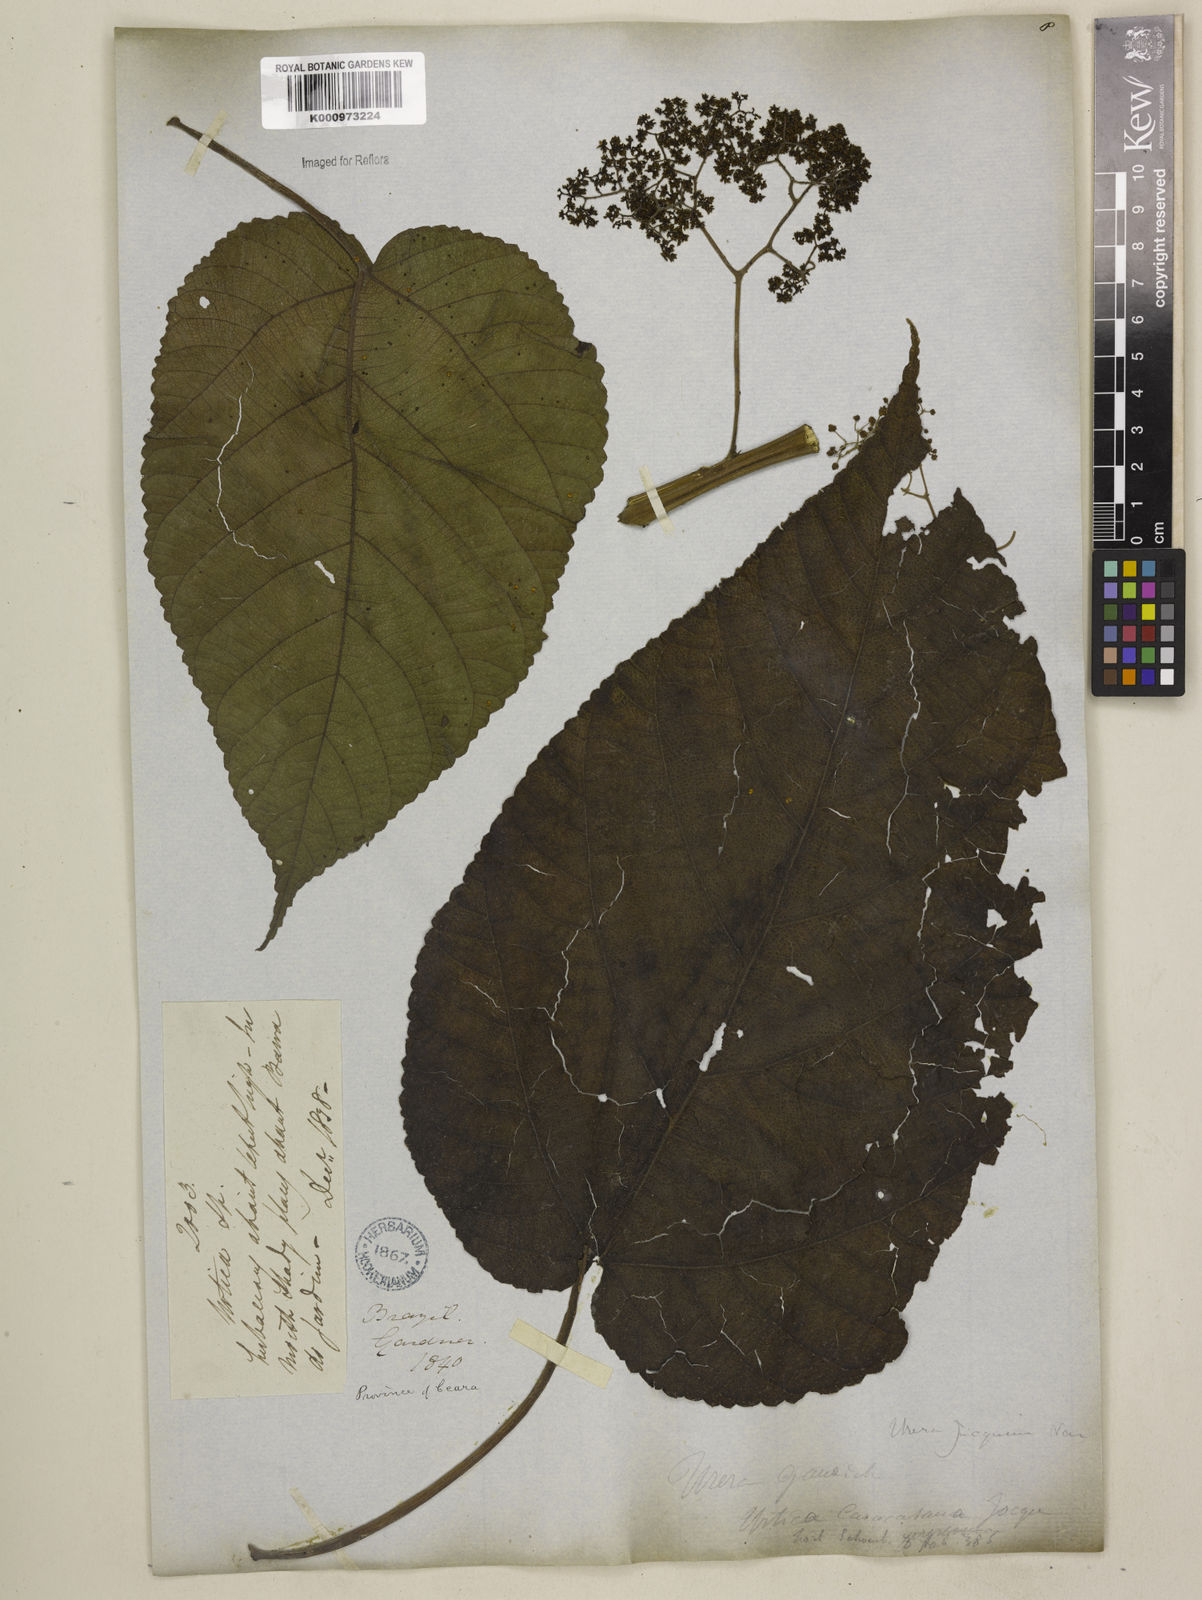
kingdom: Plantae
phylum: Tracheophyta
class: Magnoliopsida
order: Rosales
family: Urticaceae
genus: Urera
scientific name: Urera caracasana
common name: Flameberry
